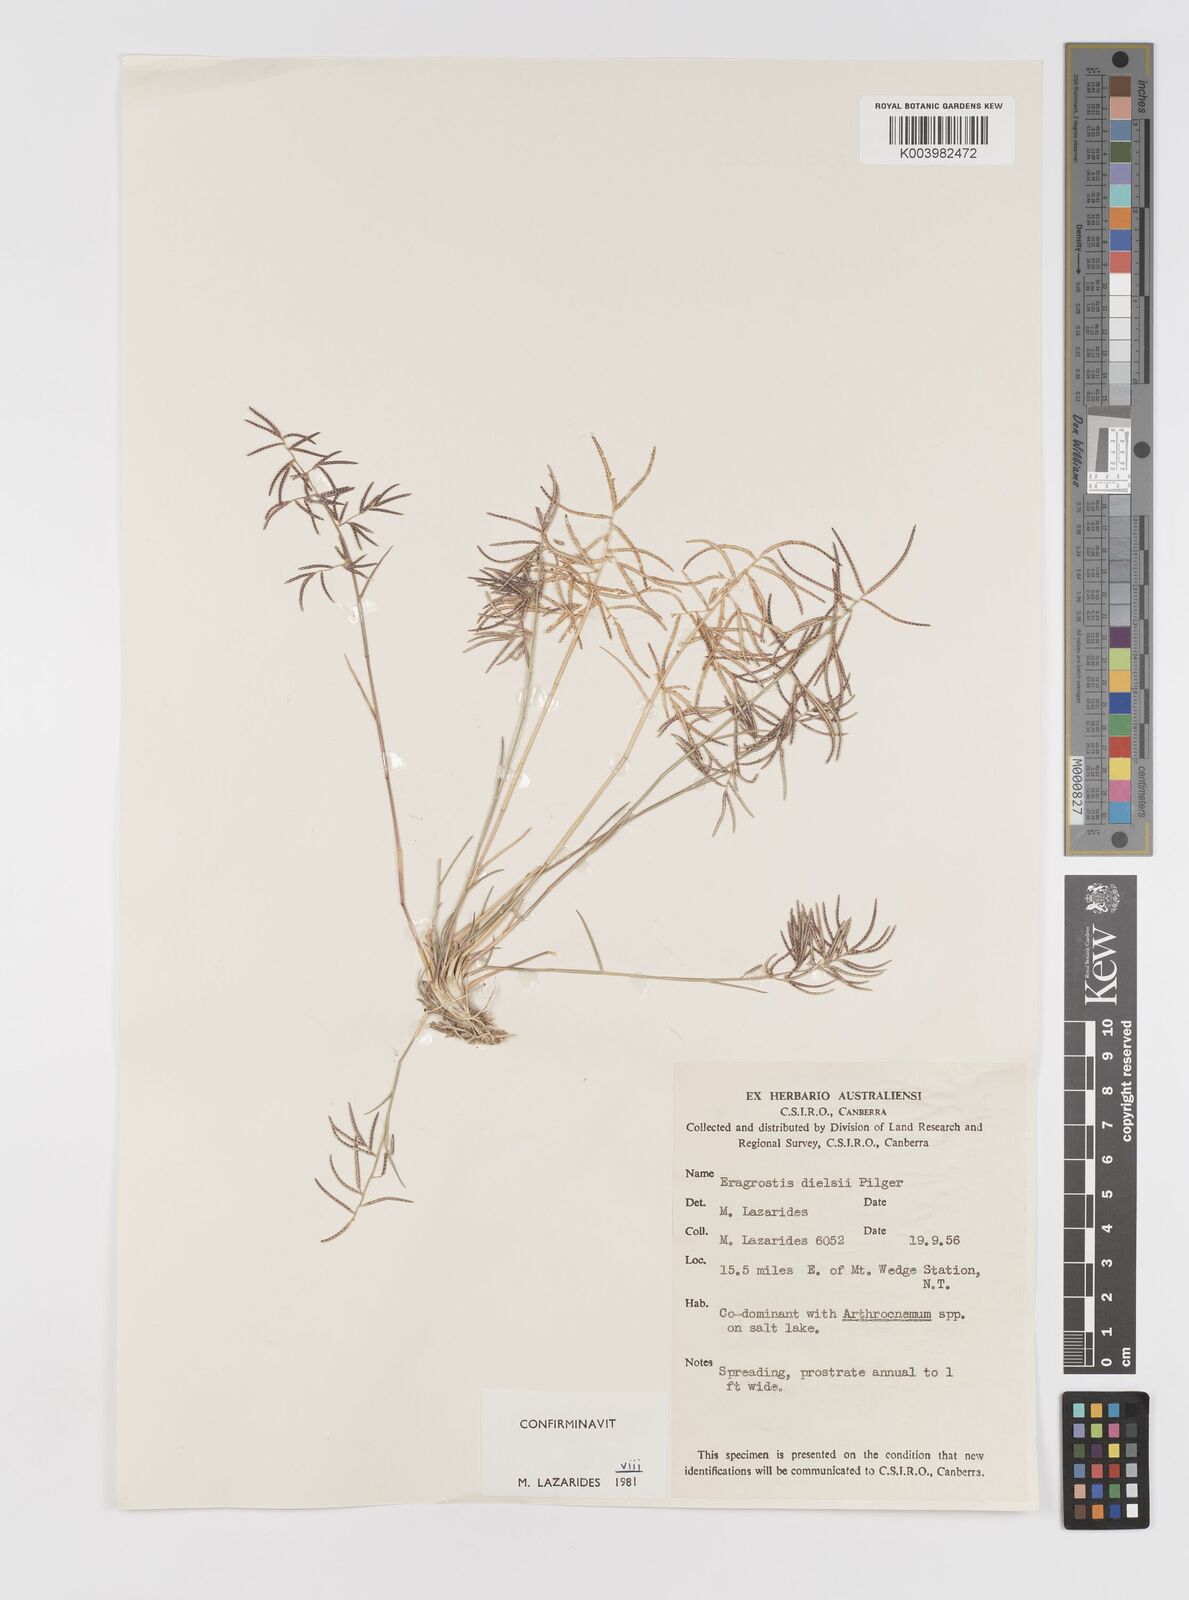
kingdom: Plantae
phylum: Tracheophyta
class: Liliopsida
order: Poales
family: Poaceae
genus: Eragrostis
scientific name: Eragrostis dielsii
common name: Lovegrass
